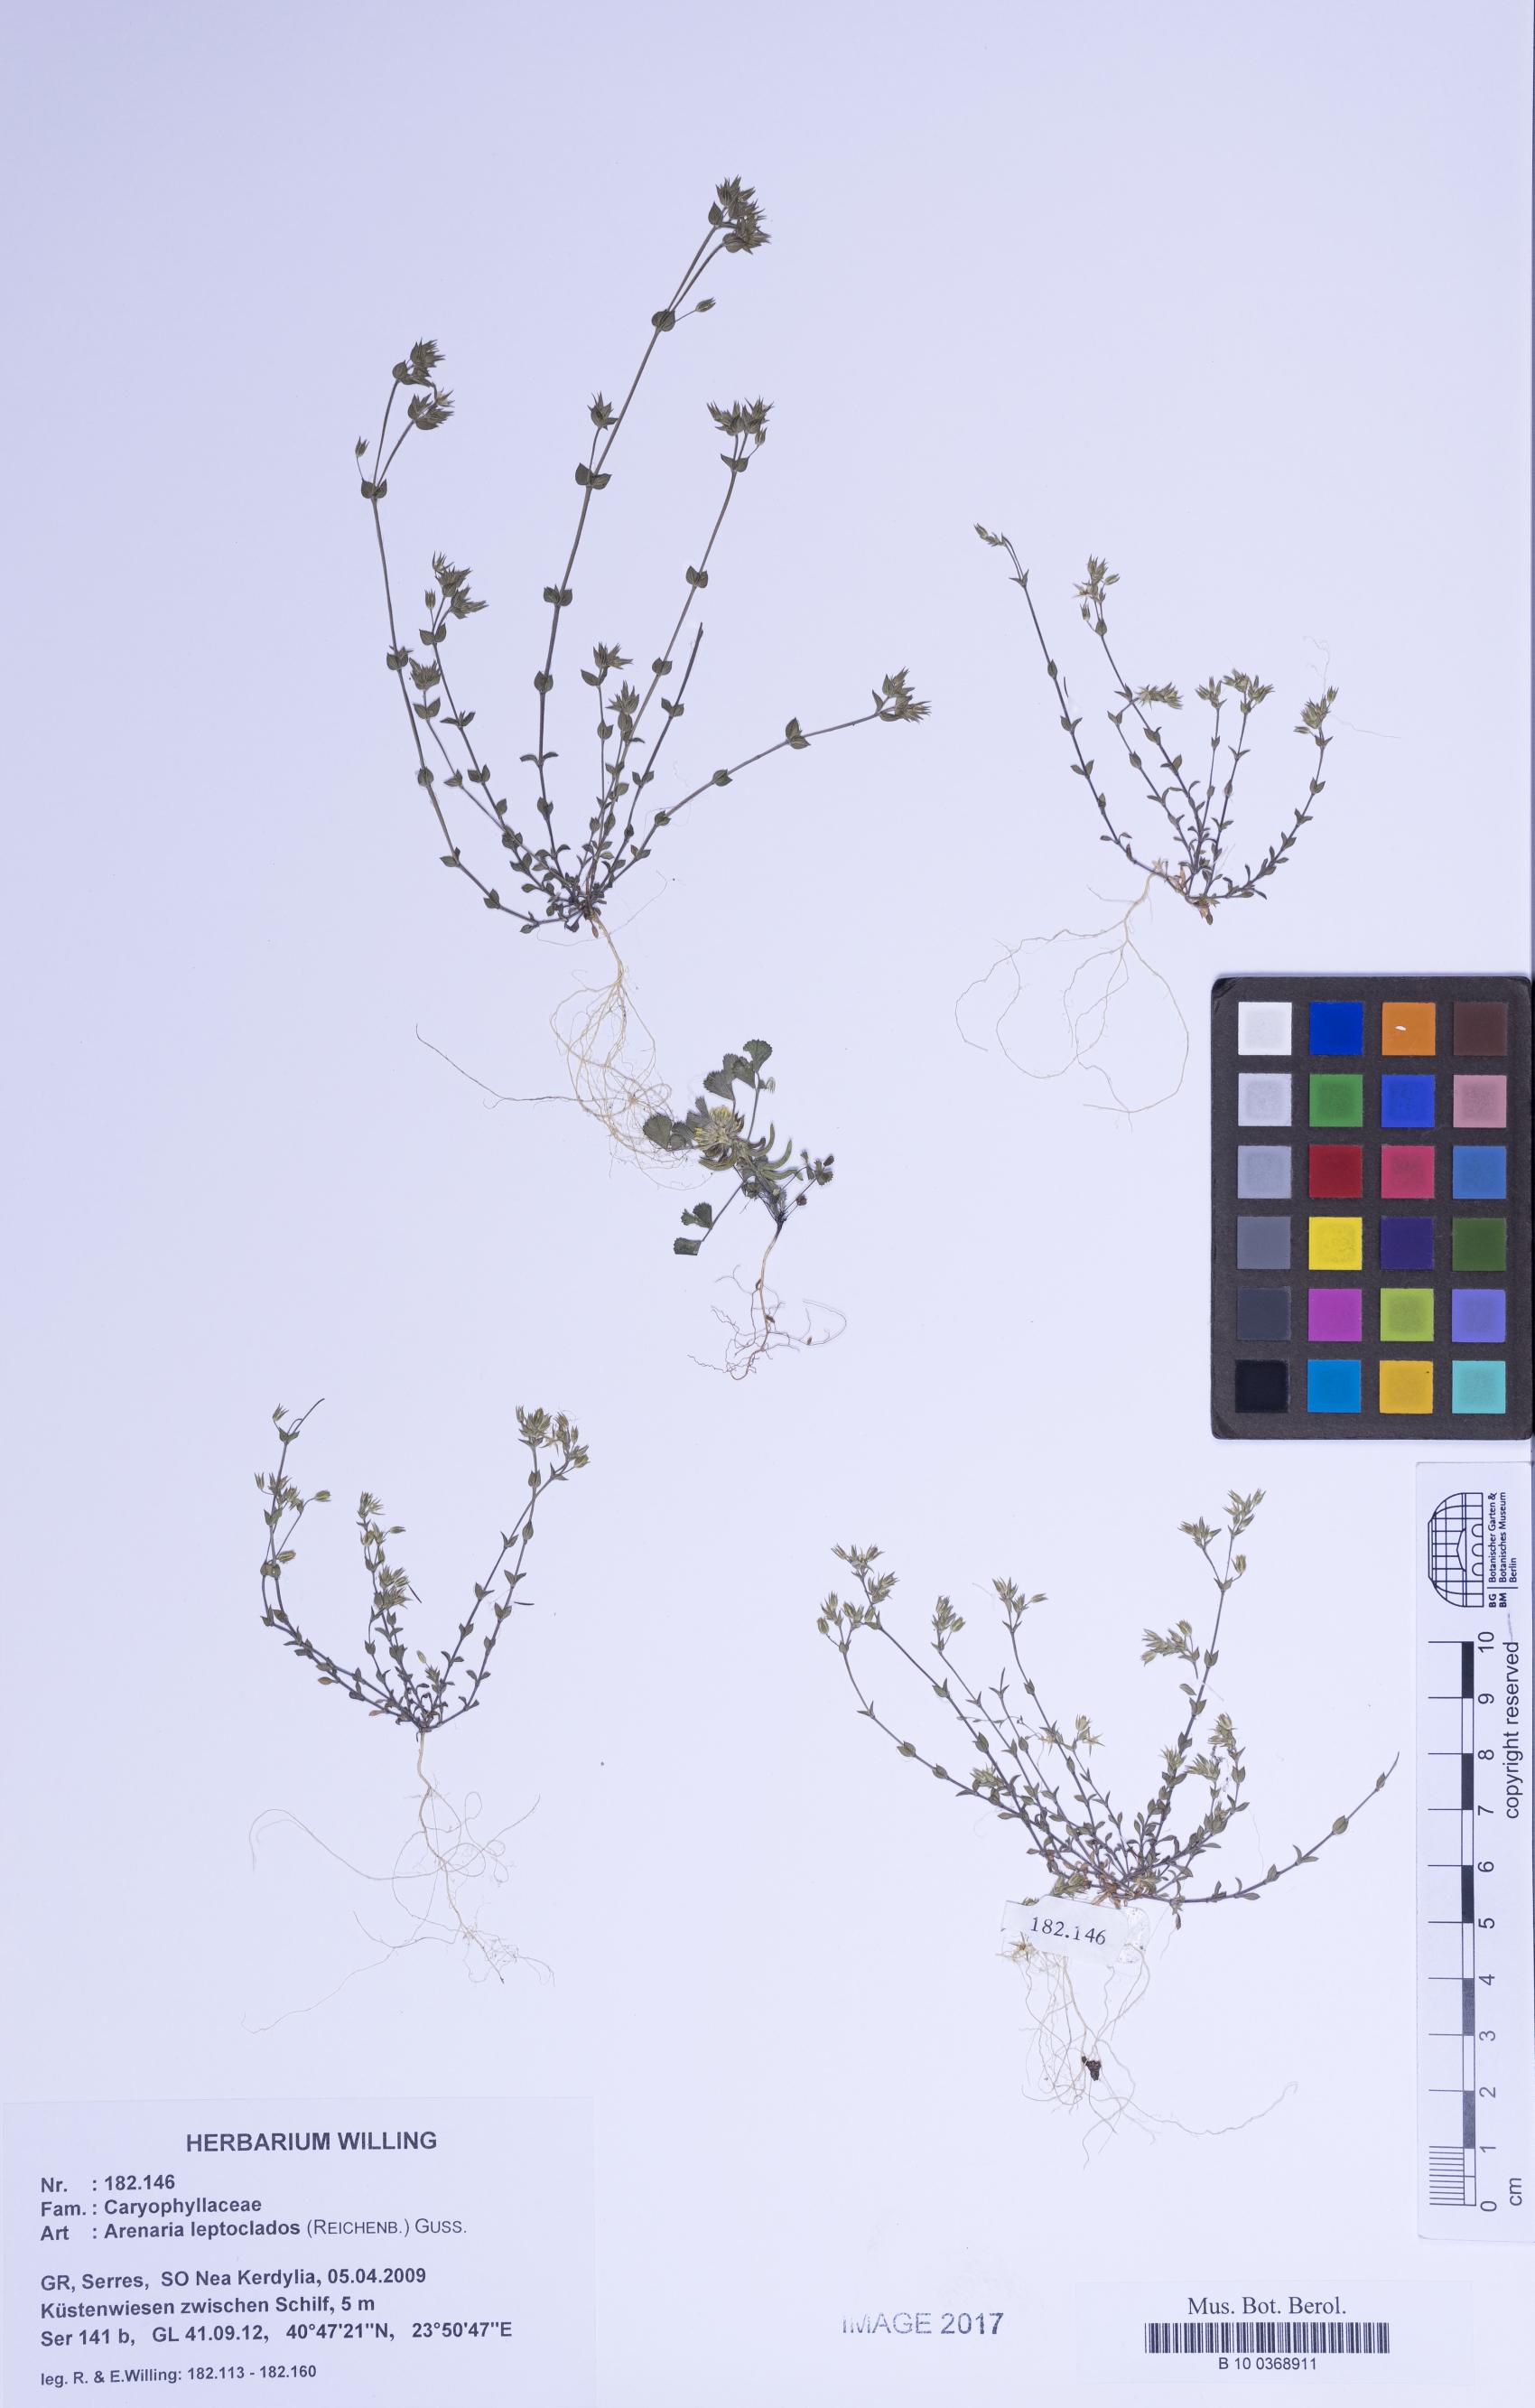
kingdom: Plantae
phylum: Tracheophyta
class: Magnoliopsida
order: Caryophyllales
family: Caryophyllaceae
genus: Arenaria
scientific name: Arenaria leptoclados
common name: Thyme-leaved sandwort
